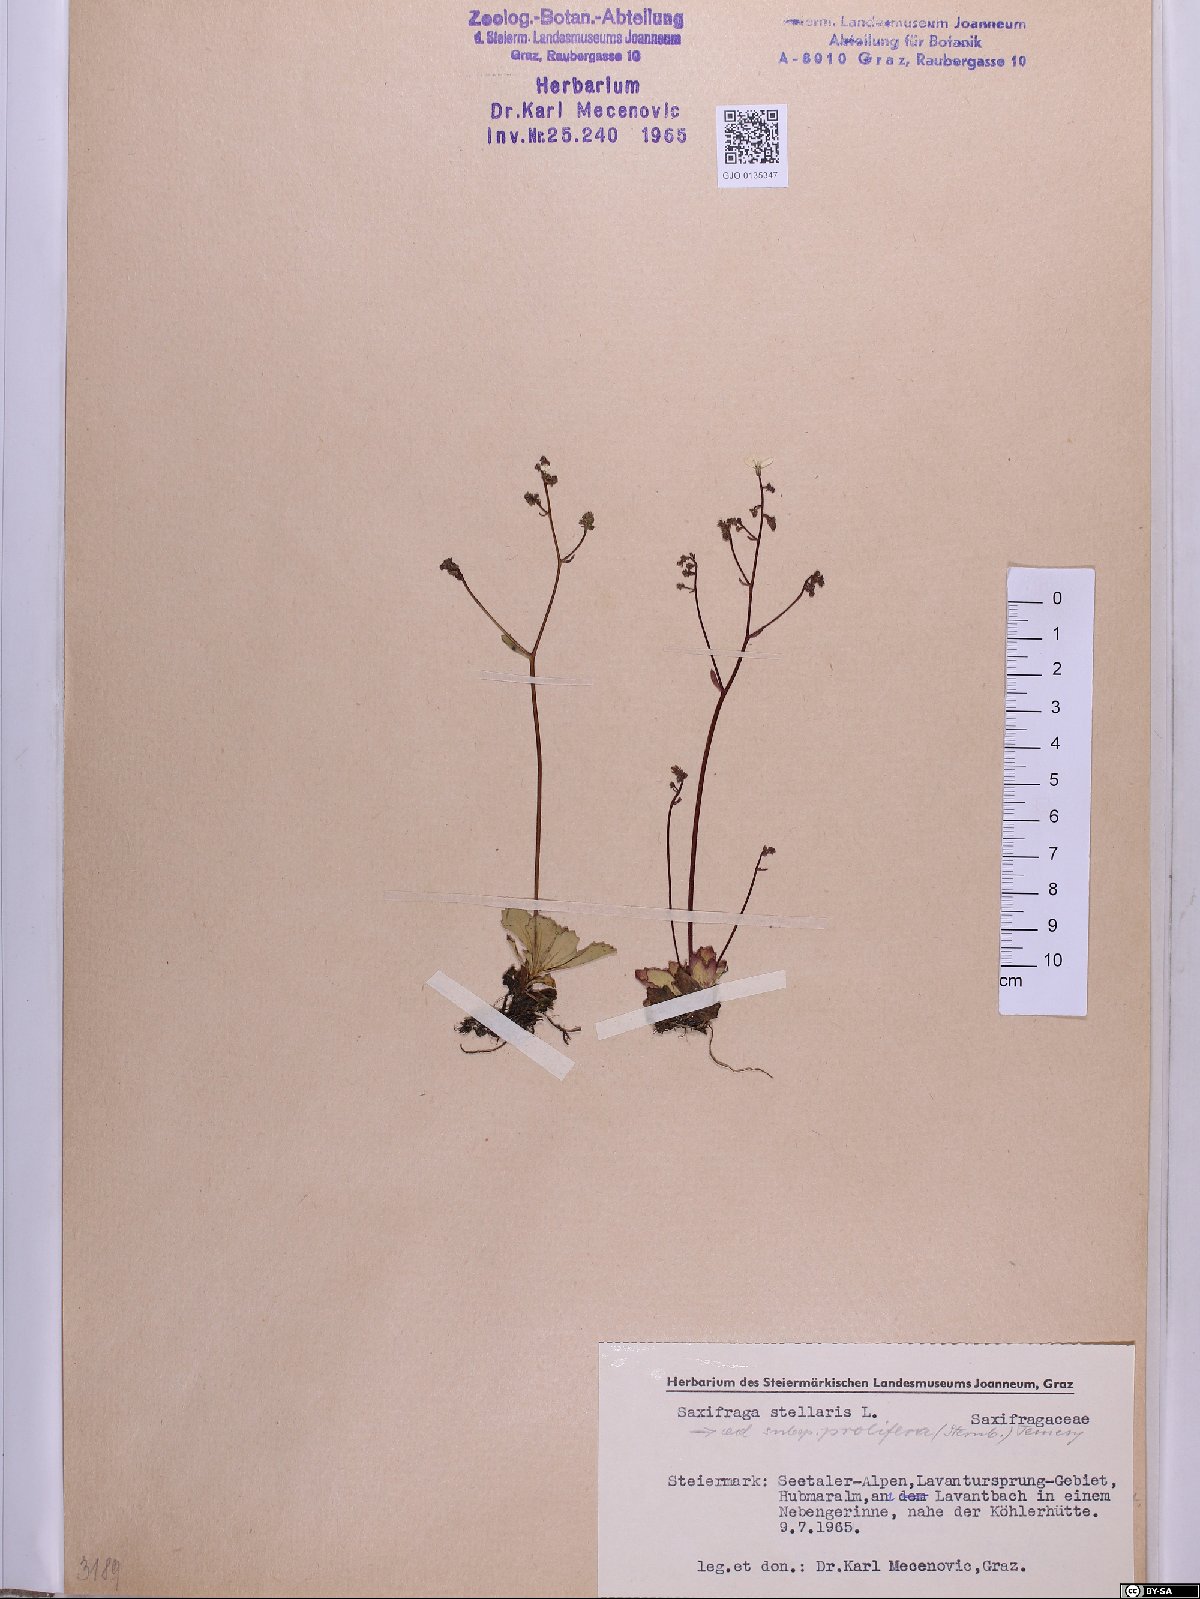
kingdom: Plantae
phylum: Tracheophyta
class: Magnoliopsida
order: Saxifragales
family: Saxifragaceae
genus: Micranthes
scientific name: Micranthes stellaris
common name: Starry saxifrage
